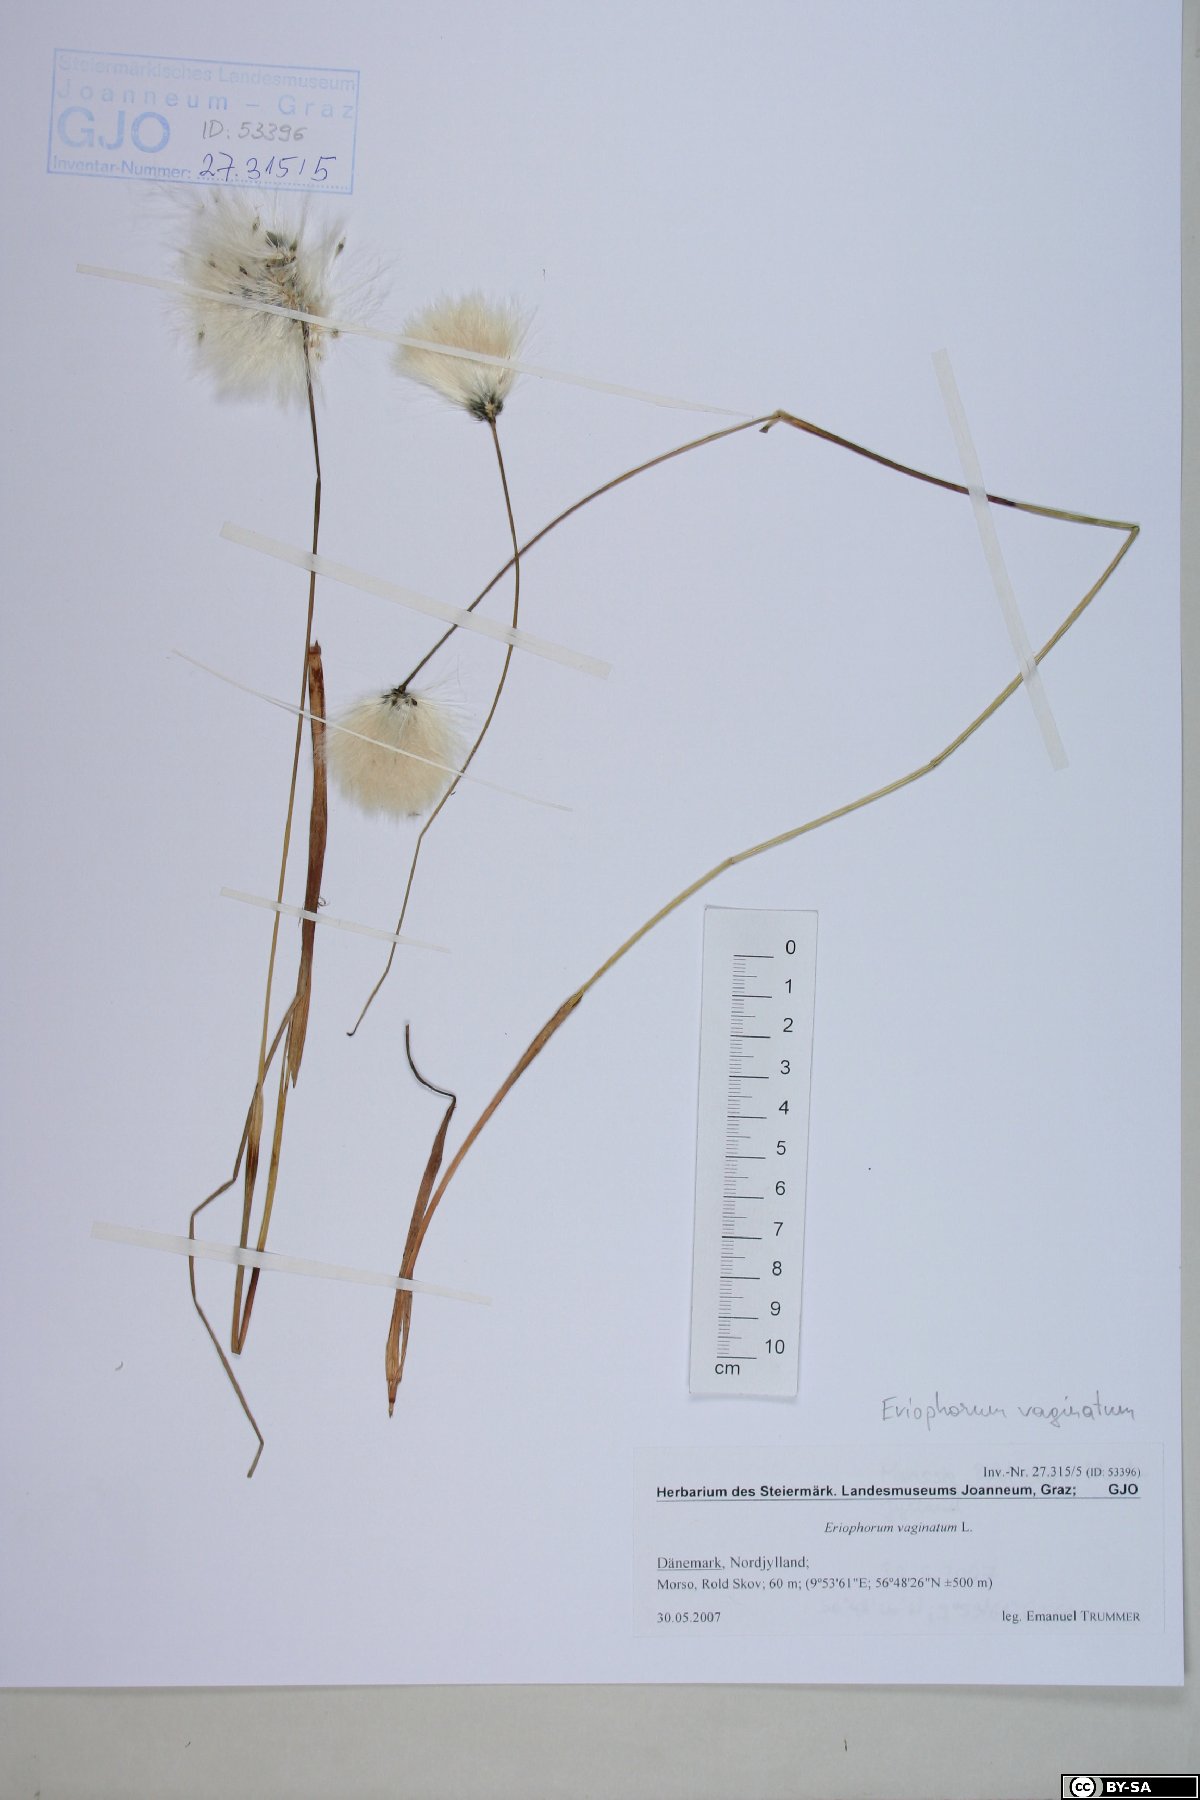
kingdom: Plantae
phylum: Tracheophyta
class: Liliopsida
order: Poales
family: Cyperaceae
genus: Eriophorum
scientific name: Eriophorum vaginatum
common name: Hare's-tail cottongrass
